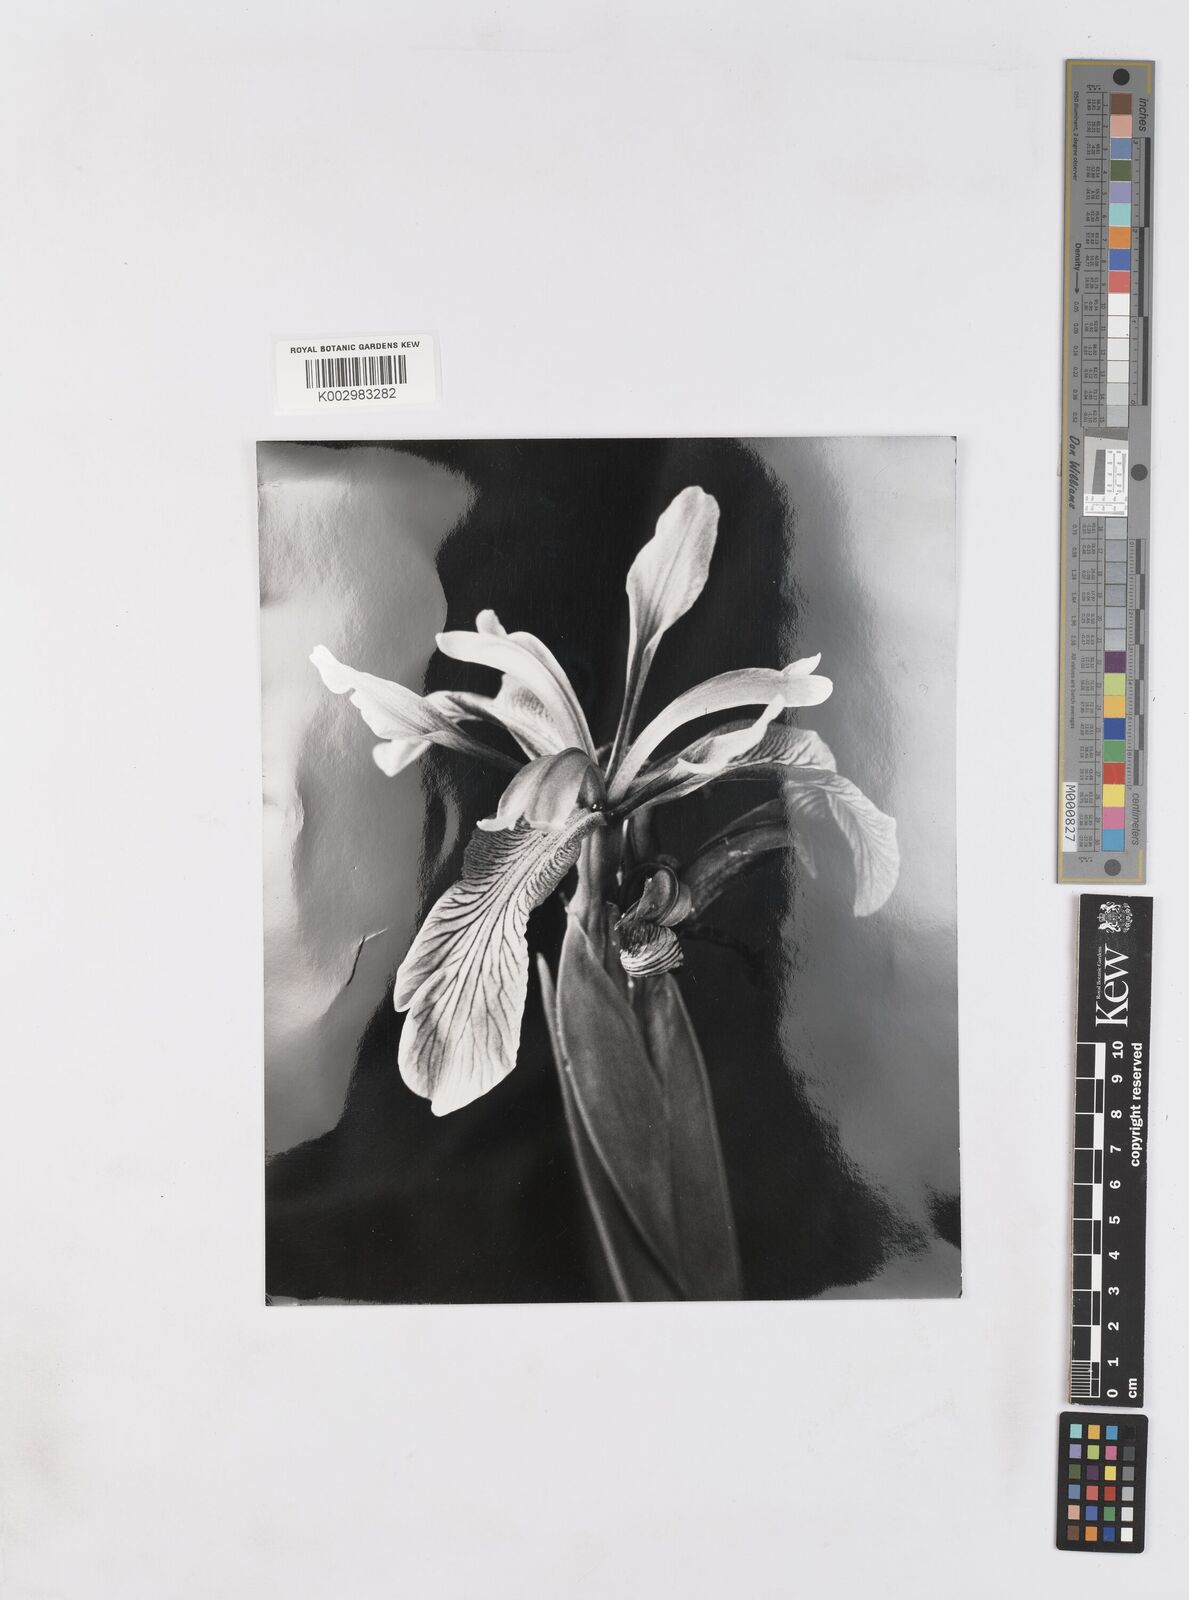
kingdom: Plantae
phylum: Tracheophyta
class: Liliopsida
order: Asparagales
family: Iridaceae
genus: Iris
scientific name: Iris spuria
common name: Blue iris
